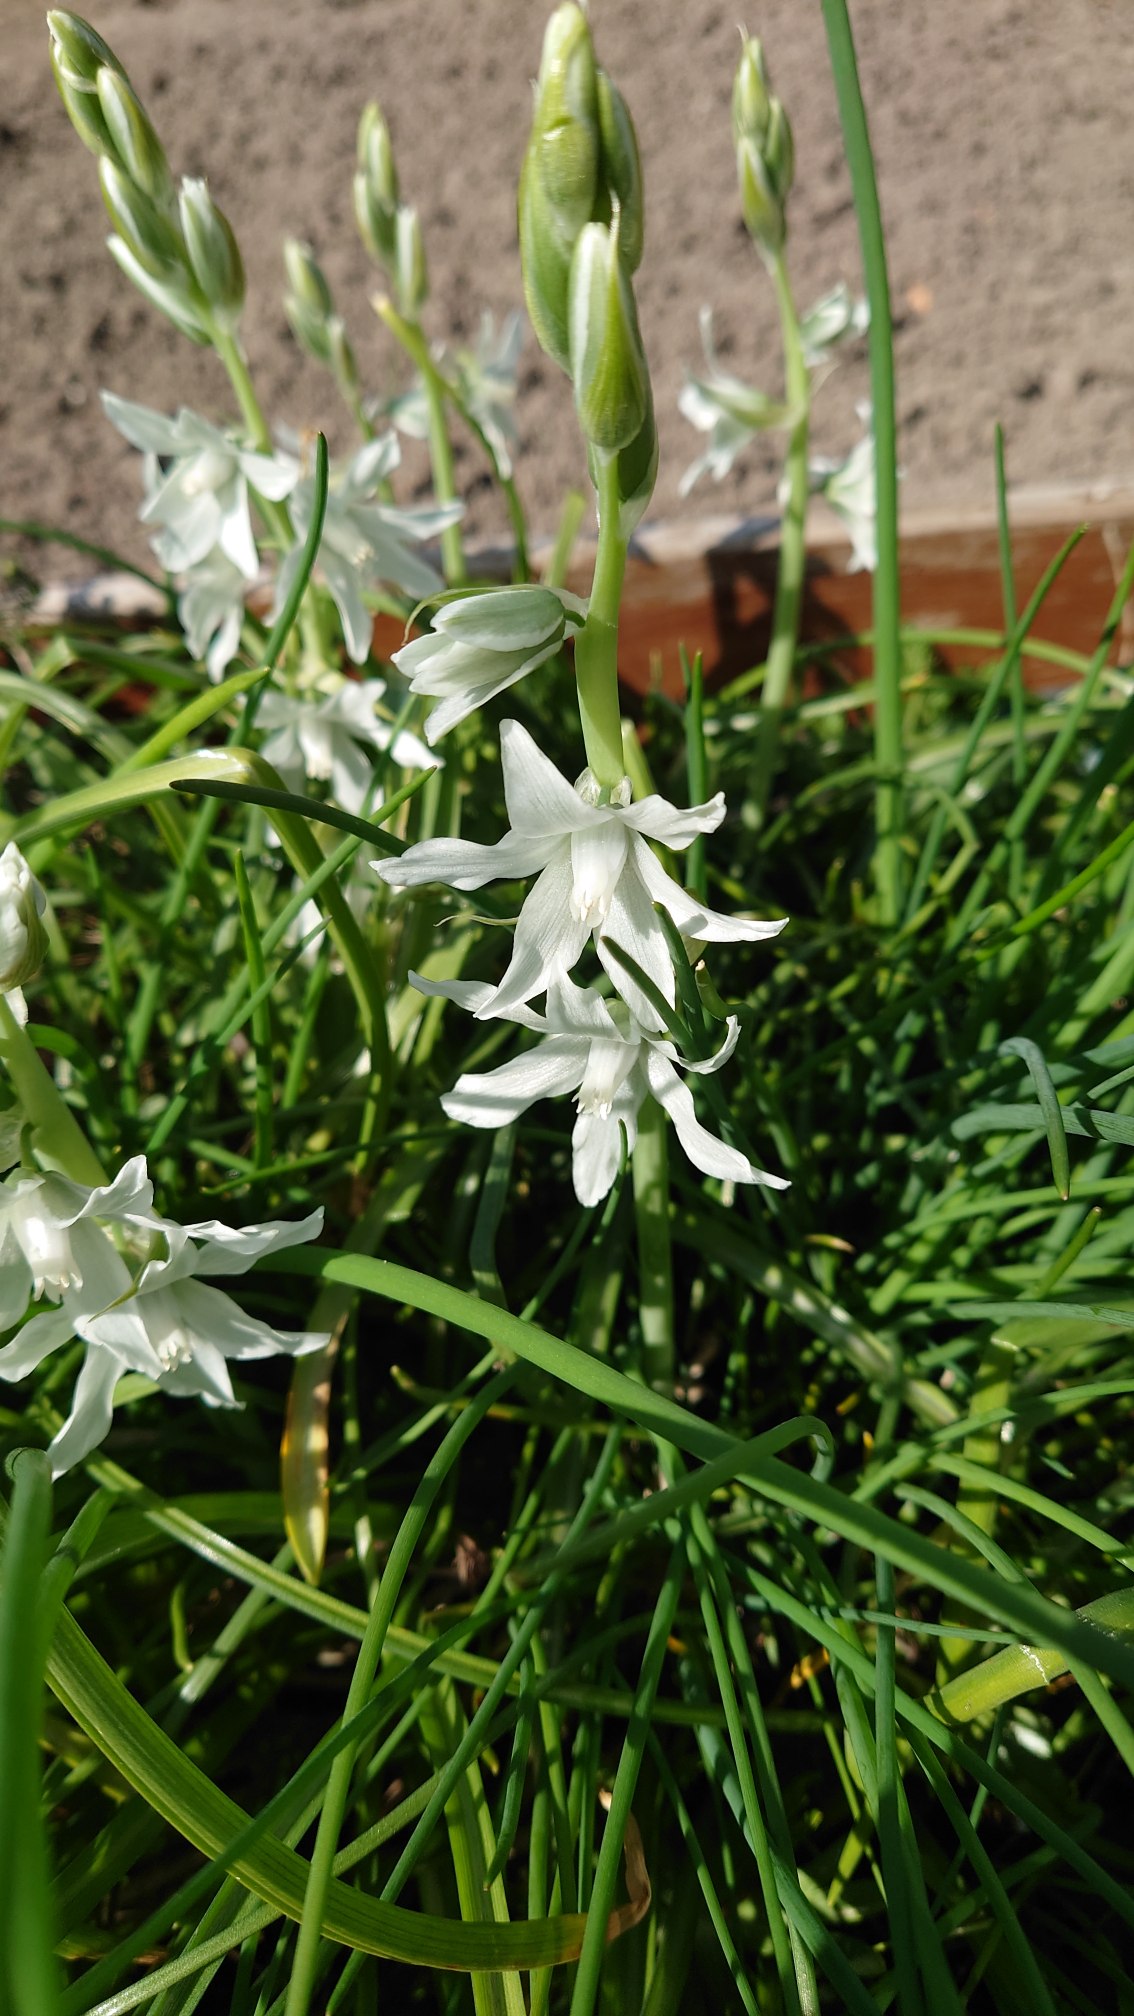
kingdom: Plantae
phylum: Tracheophyta
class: Liliopsida
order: Asparagales
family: Asparagaceae
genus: Ornithogalum
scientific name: Ornithogalum nutans
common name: Nikkende fuglemælk
